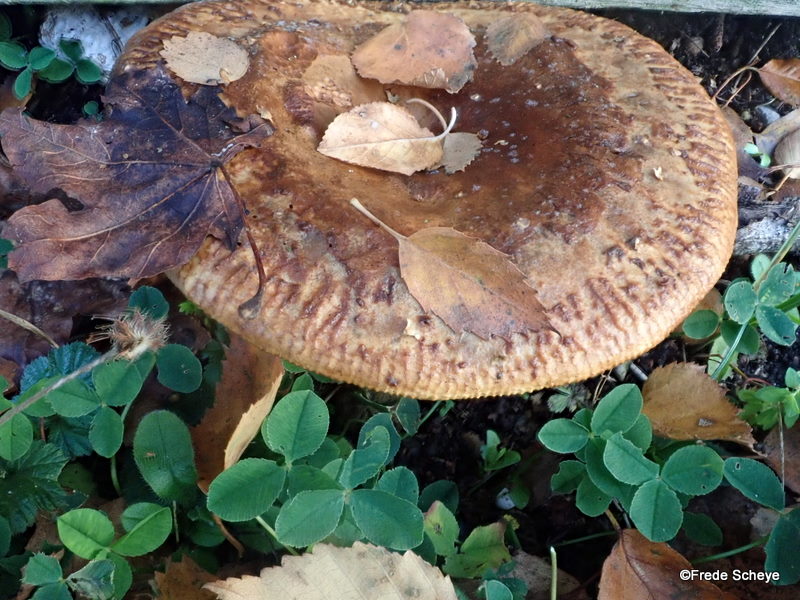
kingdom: Fungi
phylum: Basidiomycota
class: Agaricomycetes
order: Boletales
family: Paxillaceae
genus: Paxillus
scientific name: Paxillus involutus
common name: almindelig netbladhat
